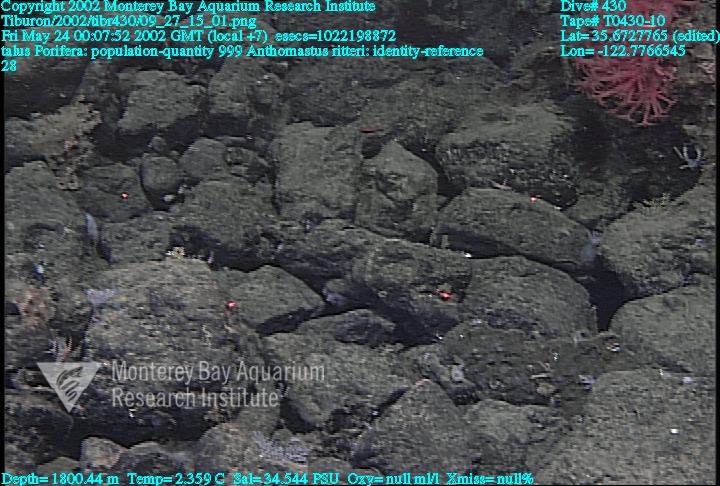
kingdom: Animalia
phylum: Porifera
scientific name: Porifera
